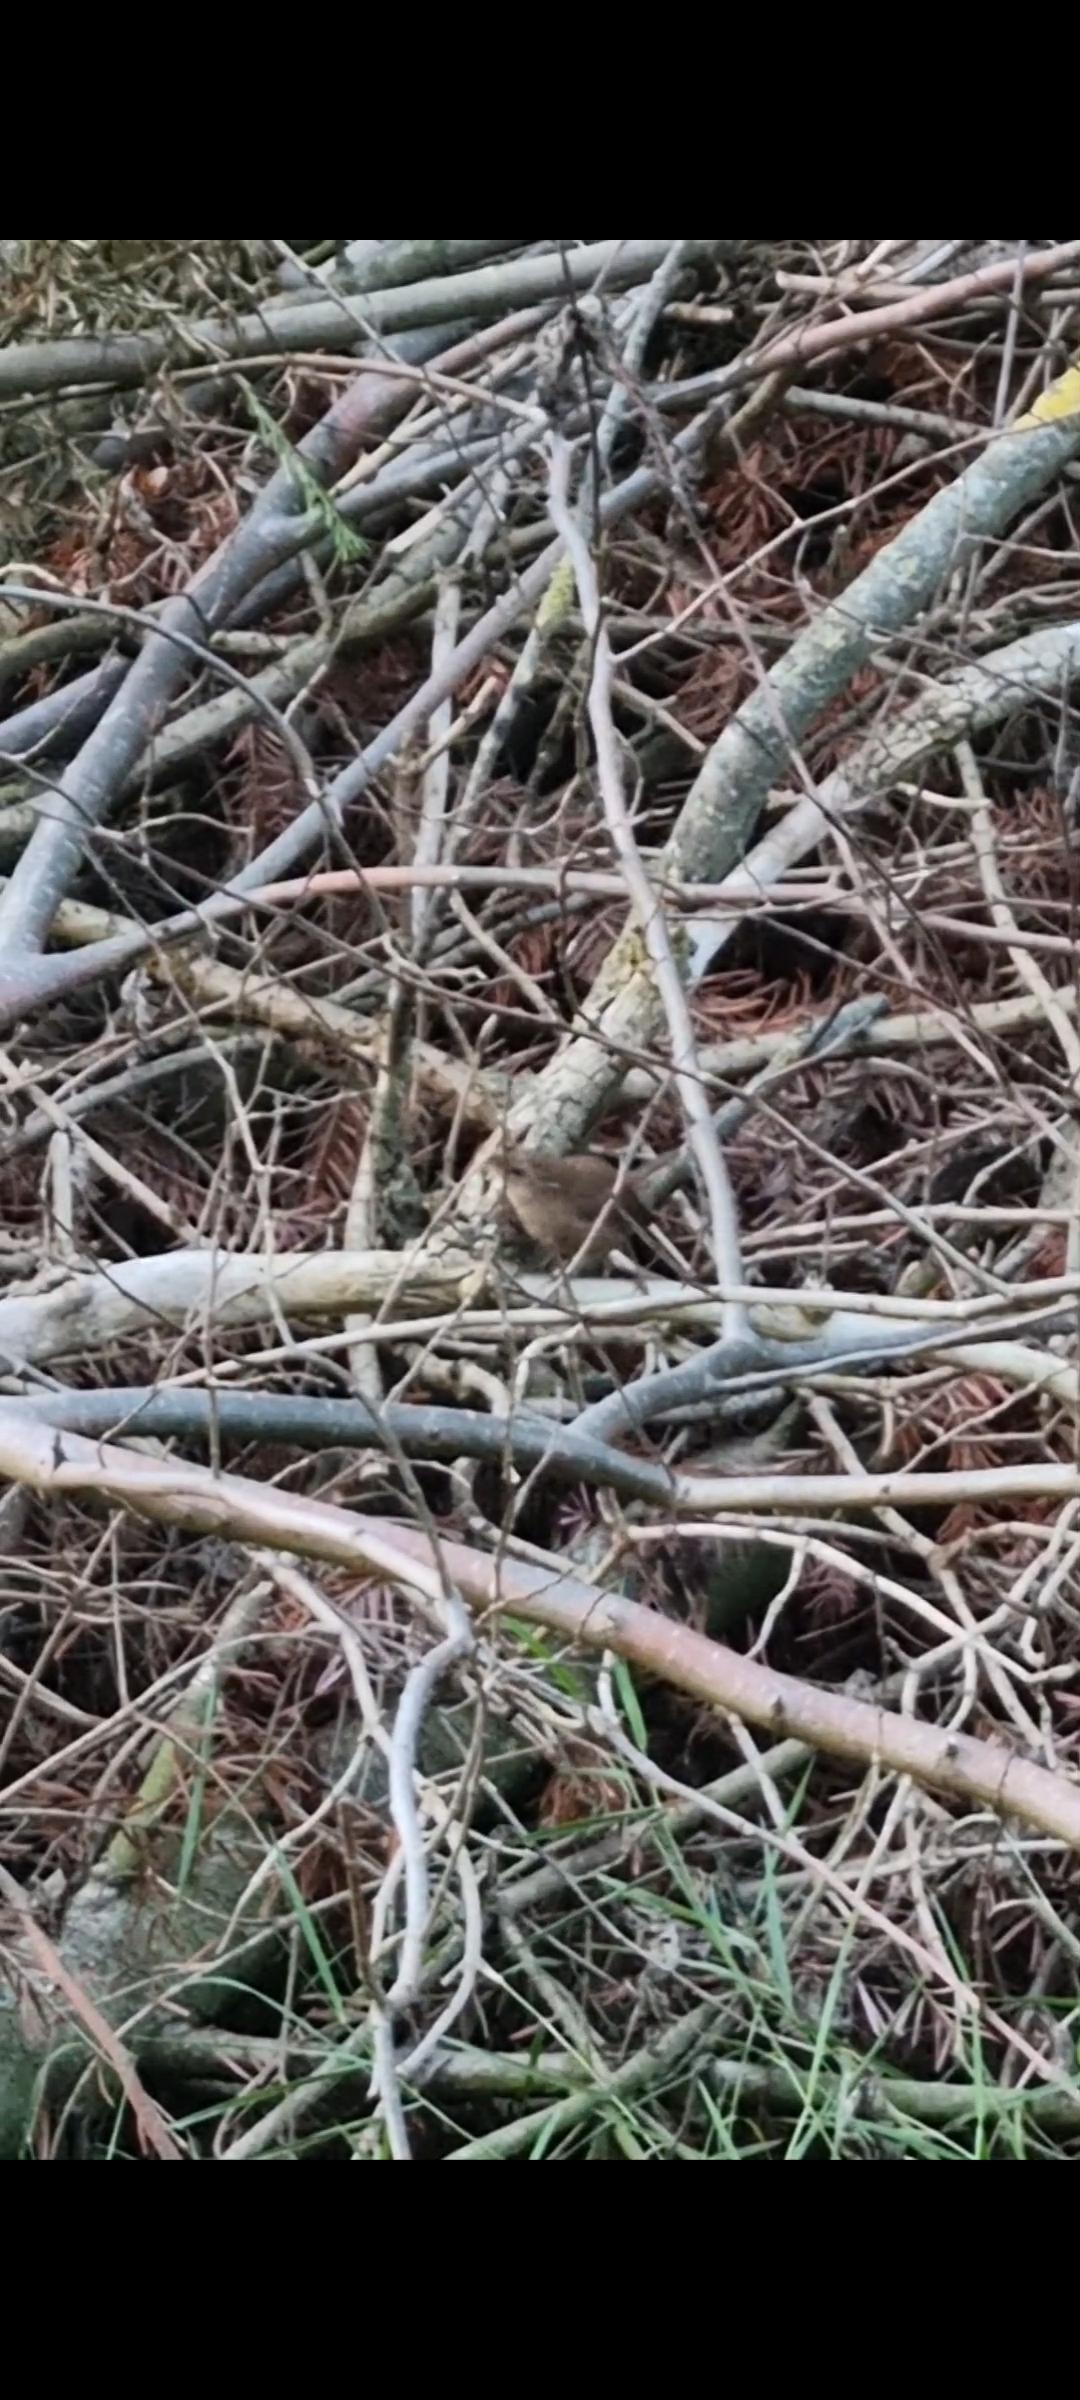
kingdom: Animalia
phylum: Chordata
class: Aves
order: Passeriformes
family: Troglodytidae
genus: Troglodytes
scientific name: Troglodytes troglodytes
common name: Gærdesmutte
